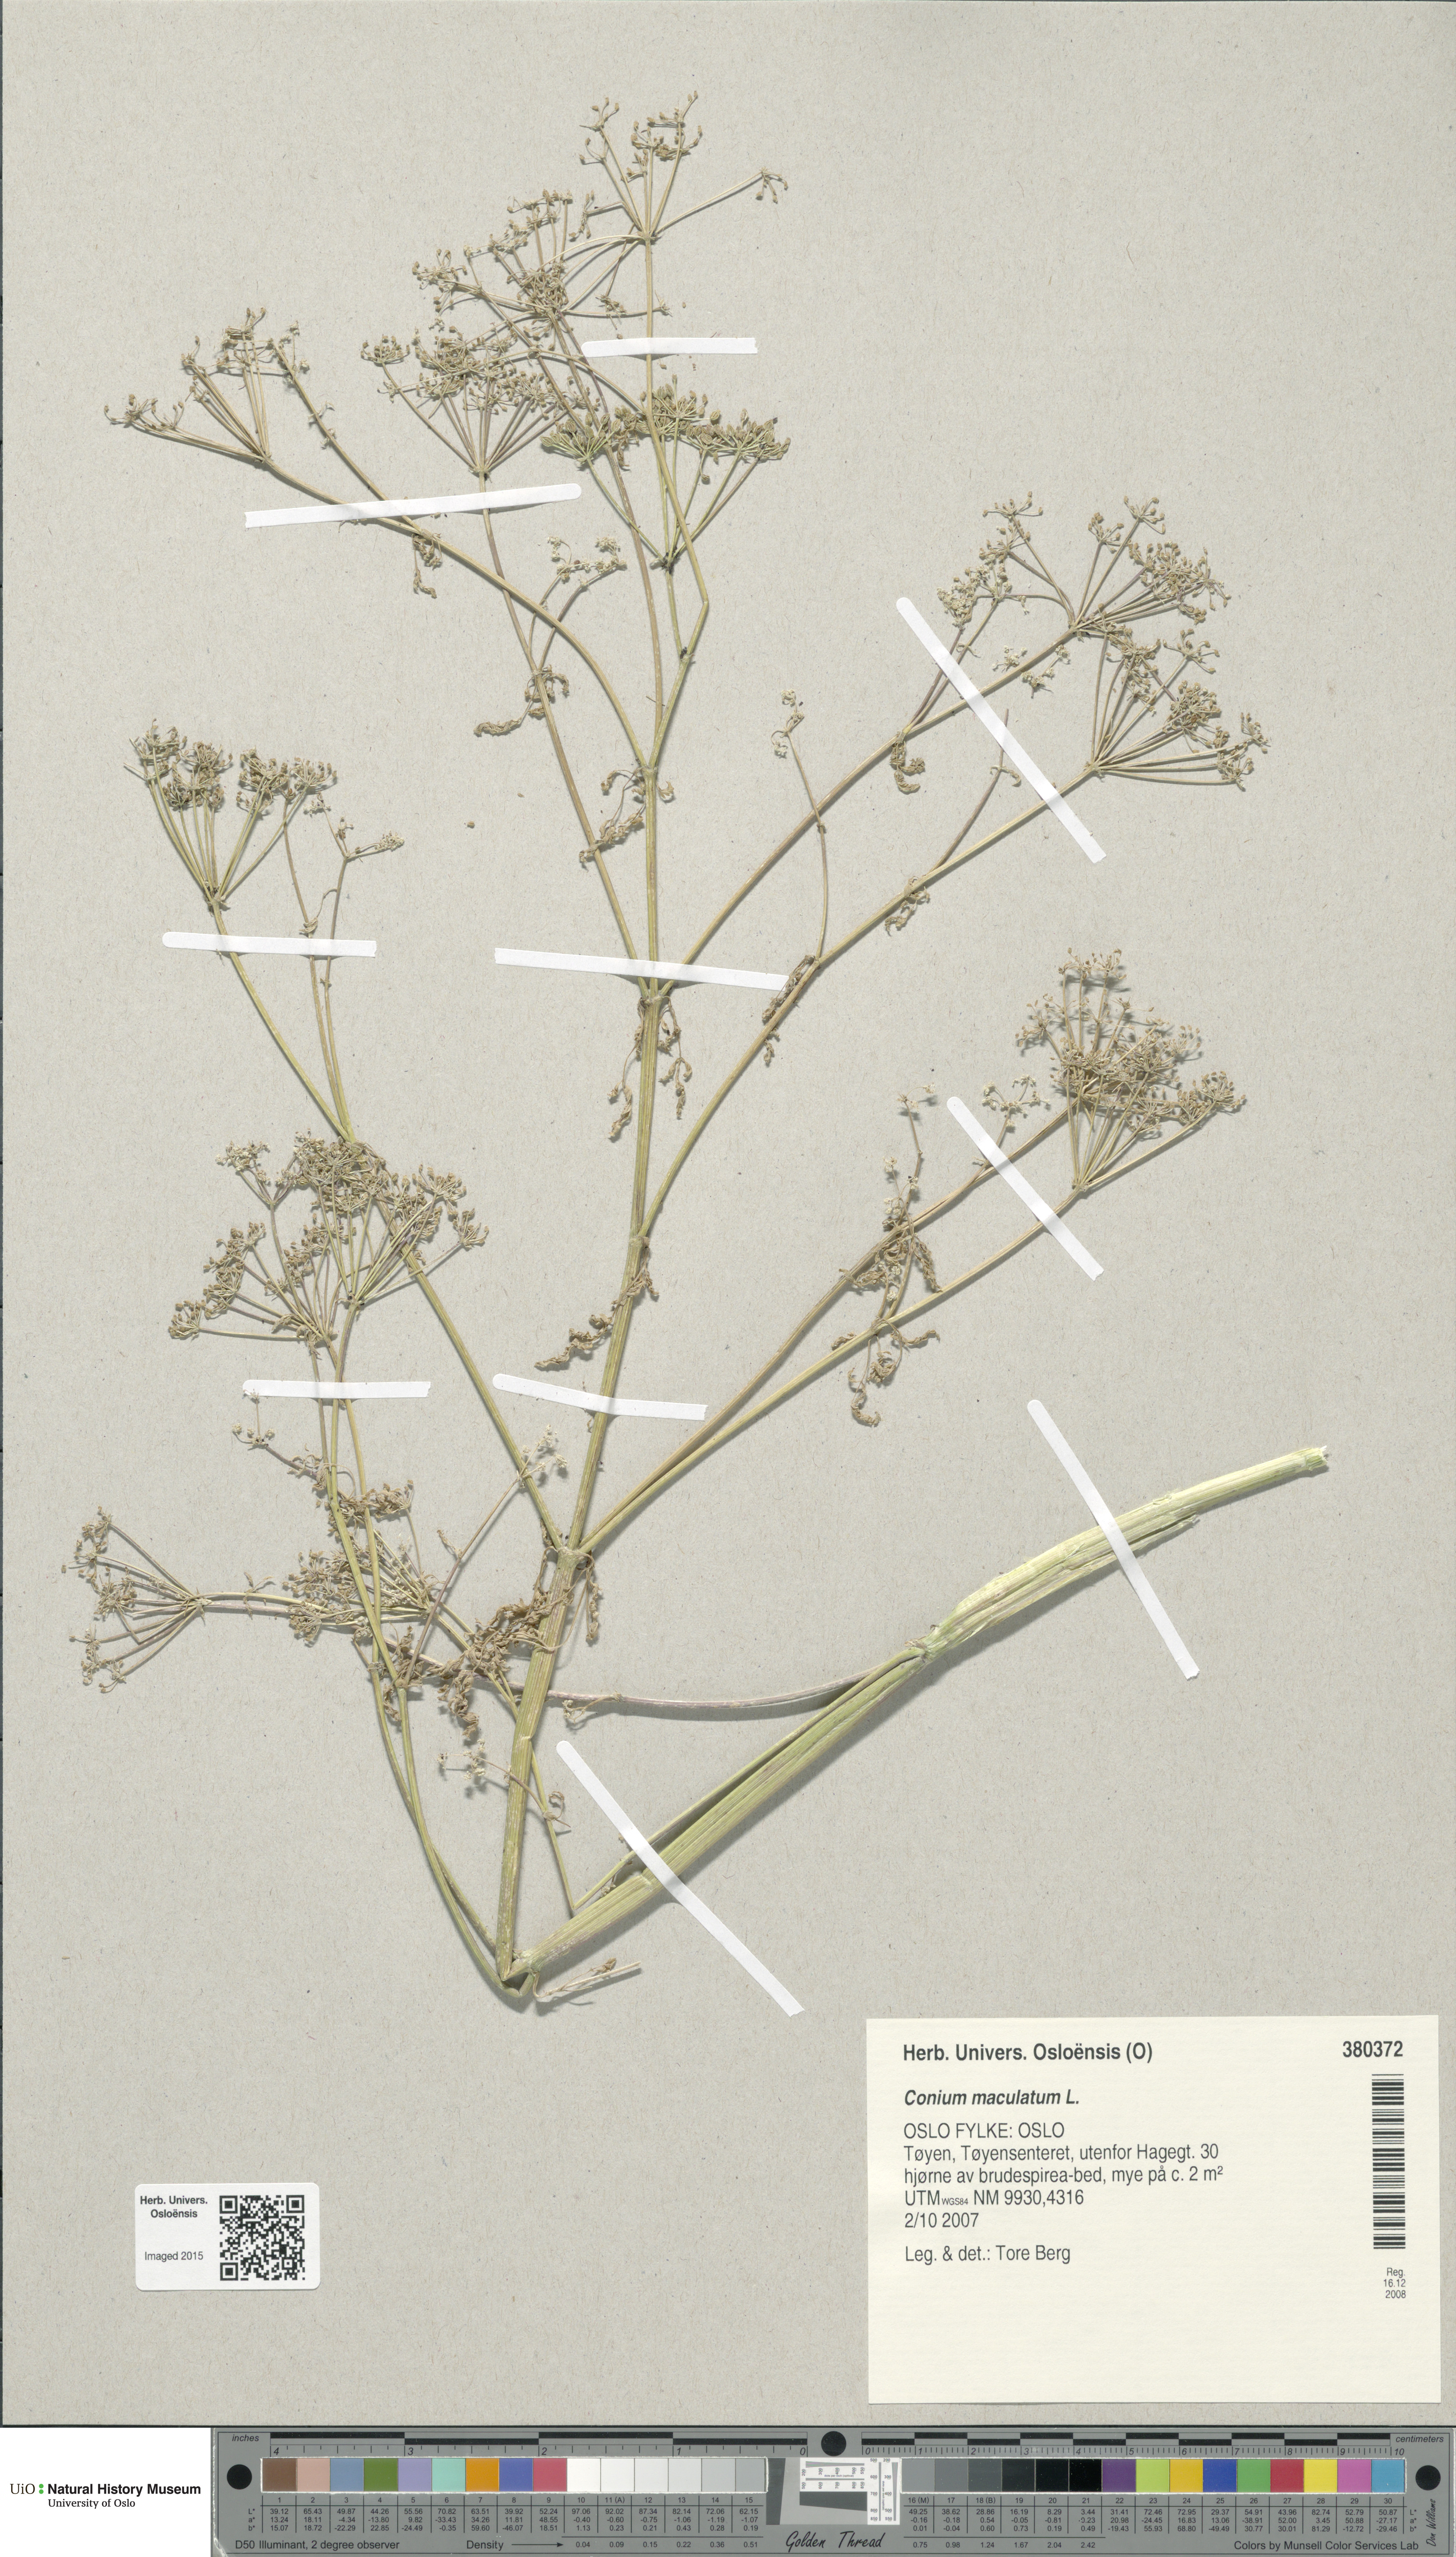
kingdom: Plantae
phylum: Tracheophyta
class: Magnoliopsida
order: Apiales
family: Apiaceae
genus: Conium
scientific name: Conium maculatum
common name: Hemlock
